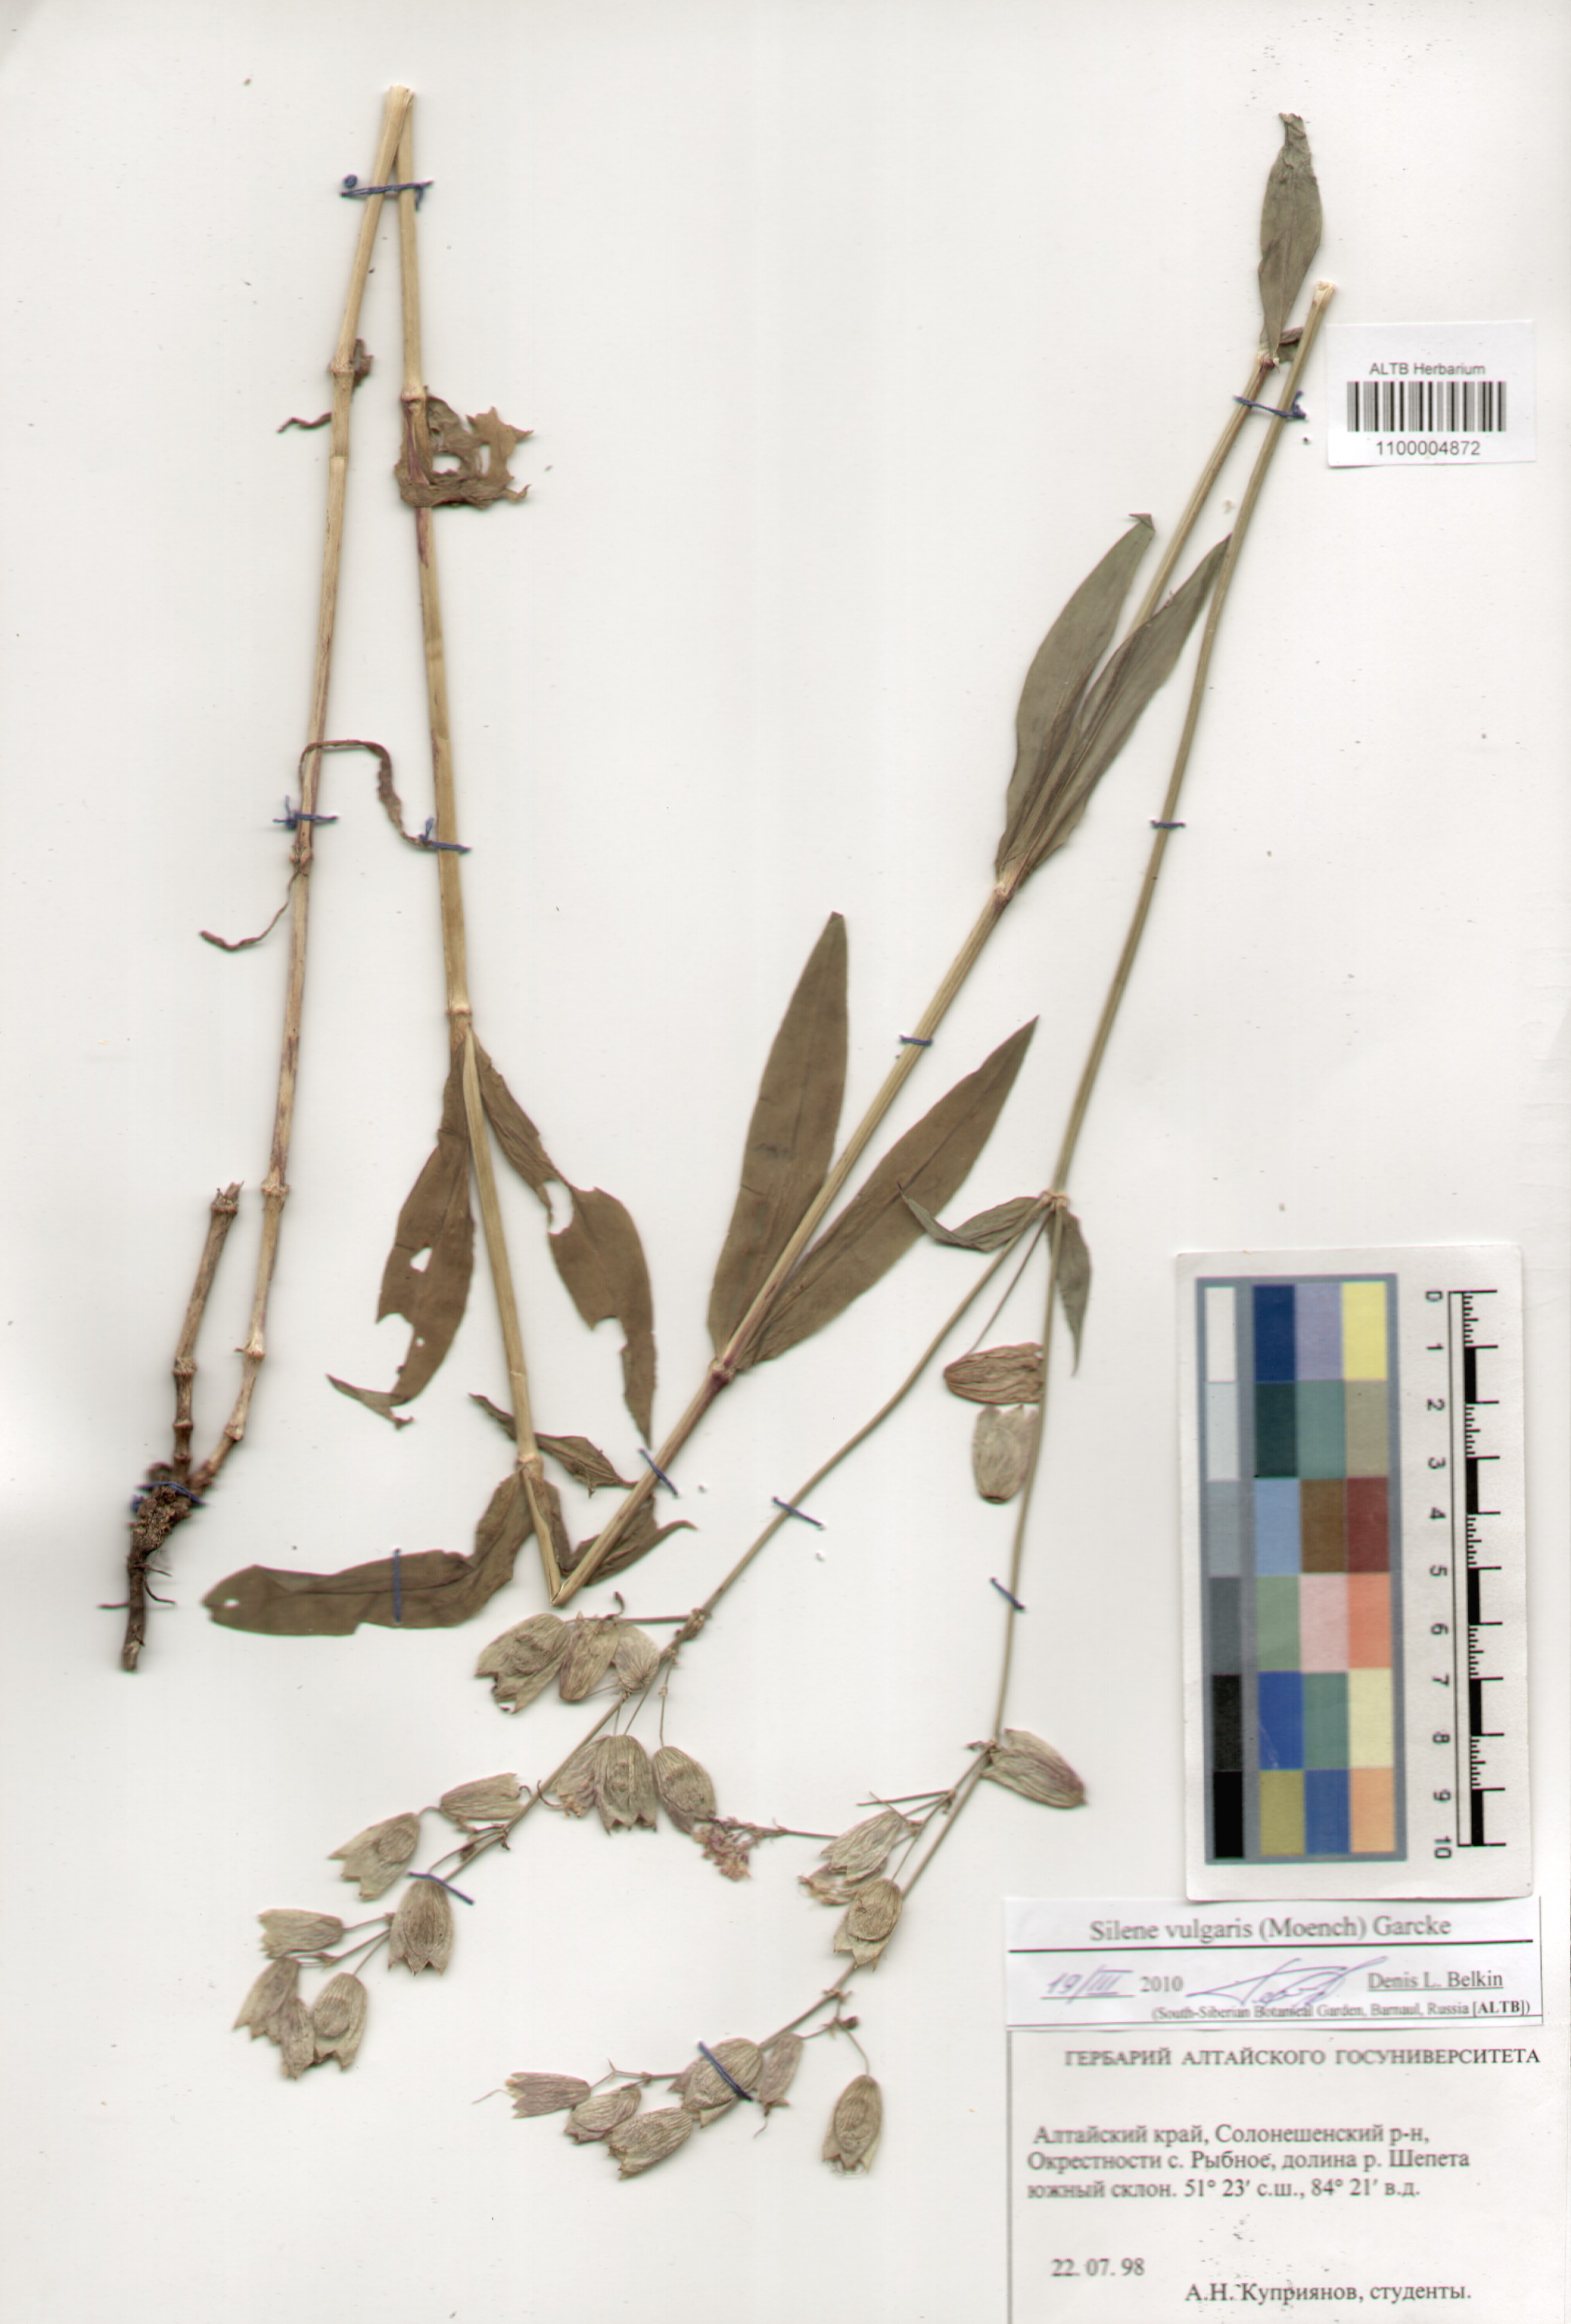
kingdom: Plantae
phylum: Tracheophyta
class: Magnoliopsida
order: Caryophyllales
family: Caryophyllaceae
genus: Silene
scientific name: Silene vulgaris
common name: Bladder campion
